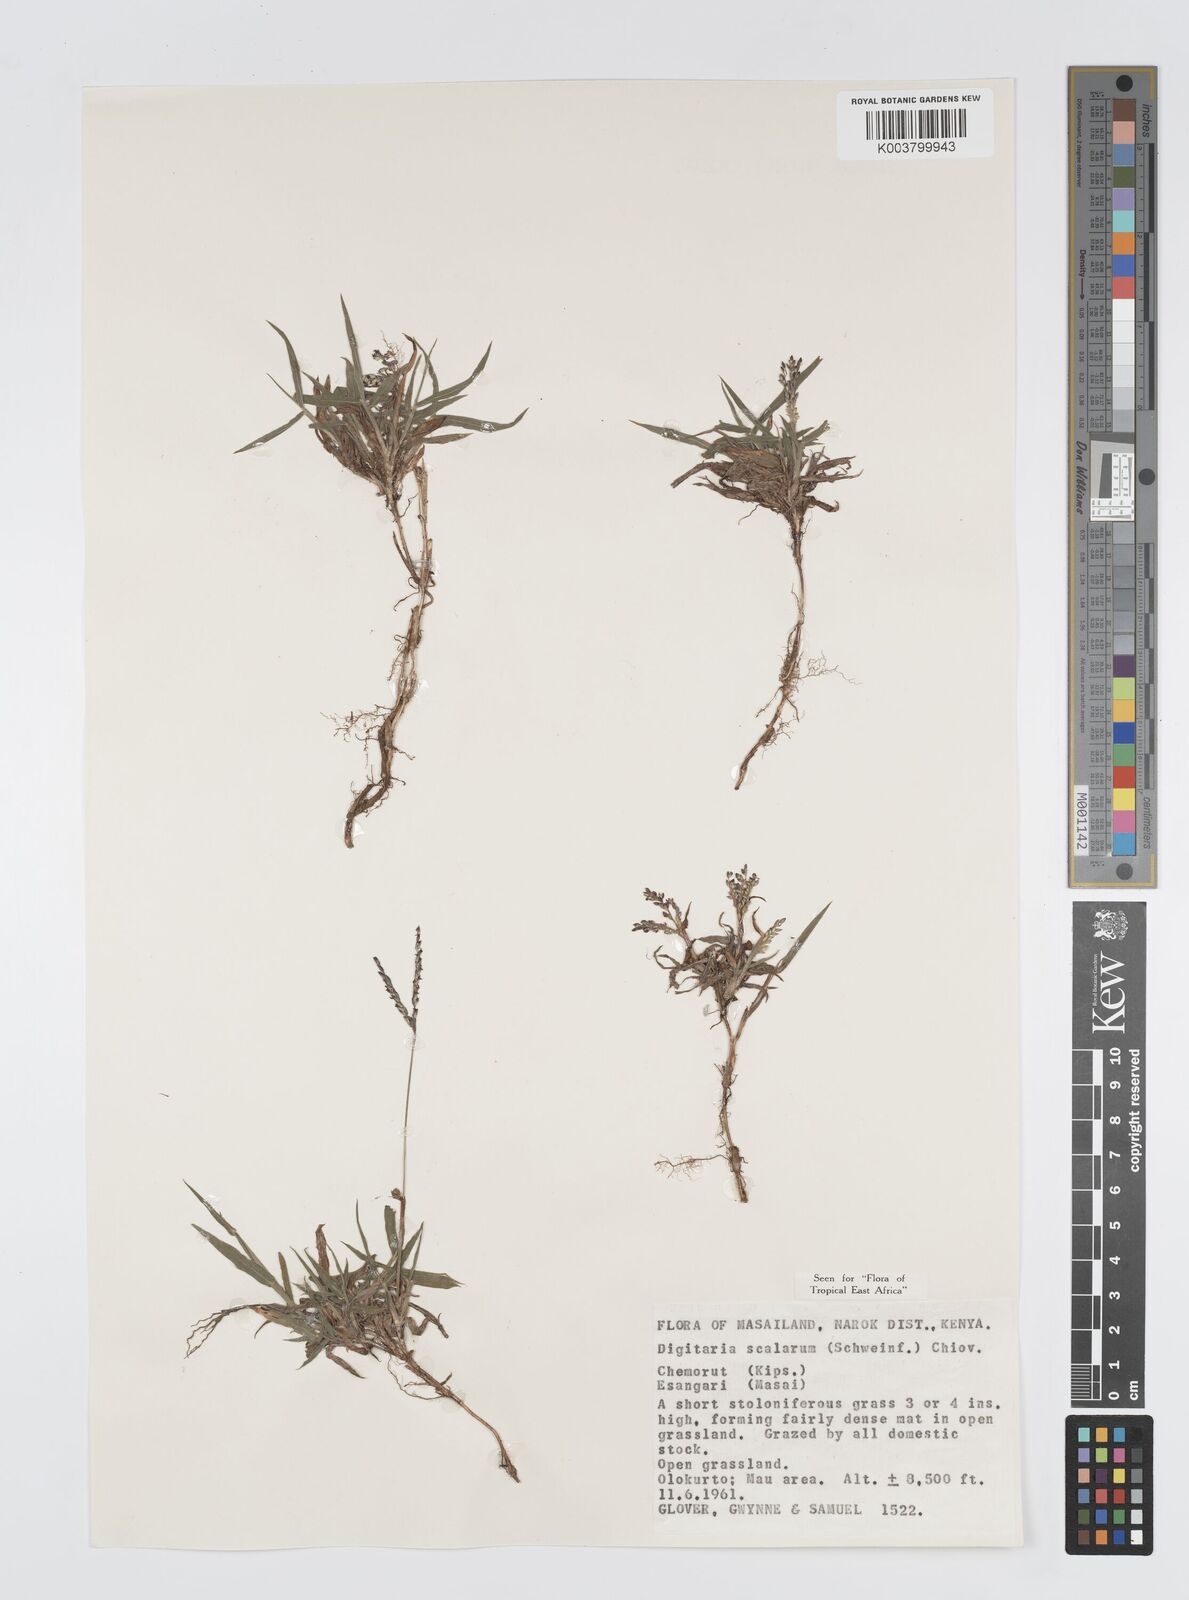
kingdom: Plantae
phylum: Tracheophyta
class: Liliopsida
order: Poales
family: Poaceae
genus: Digitaria
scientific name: Digitaria abyssinica
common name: African couchgrass
